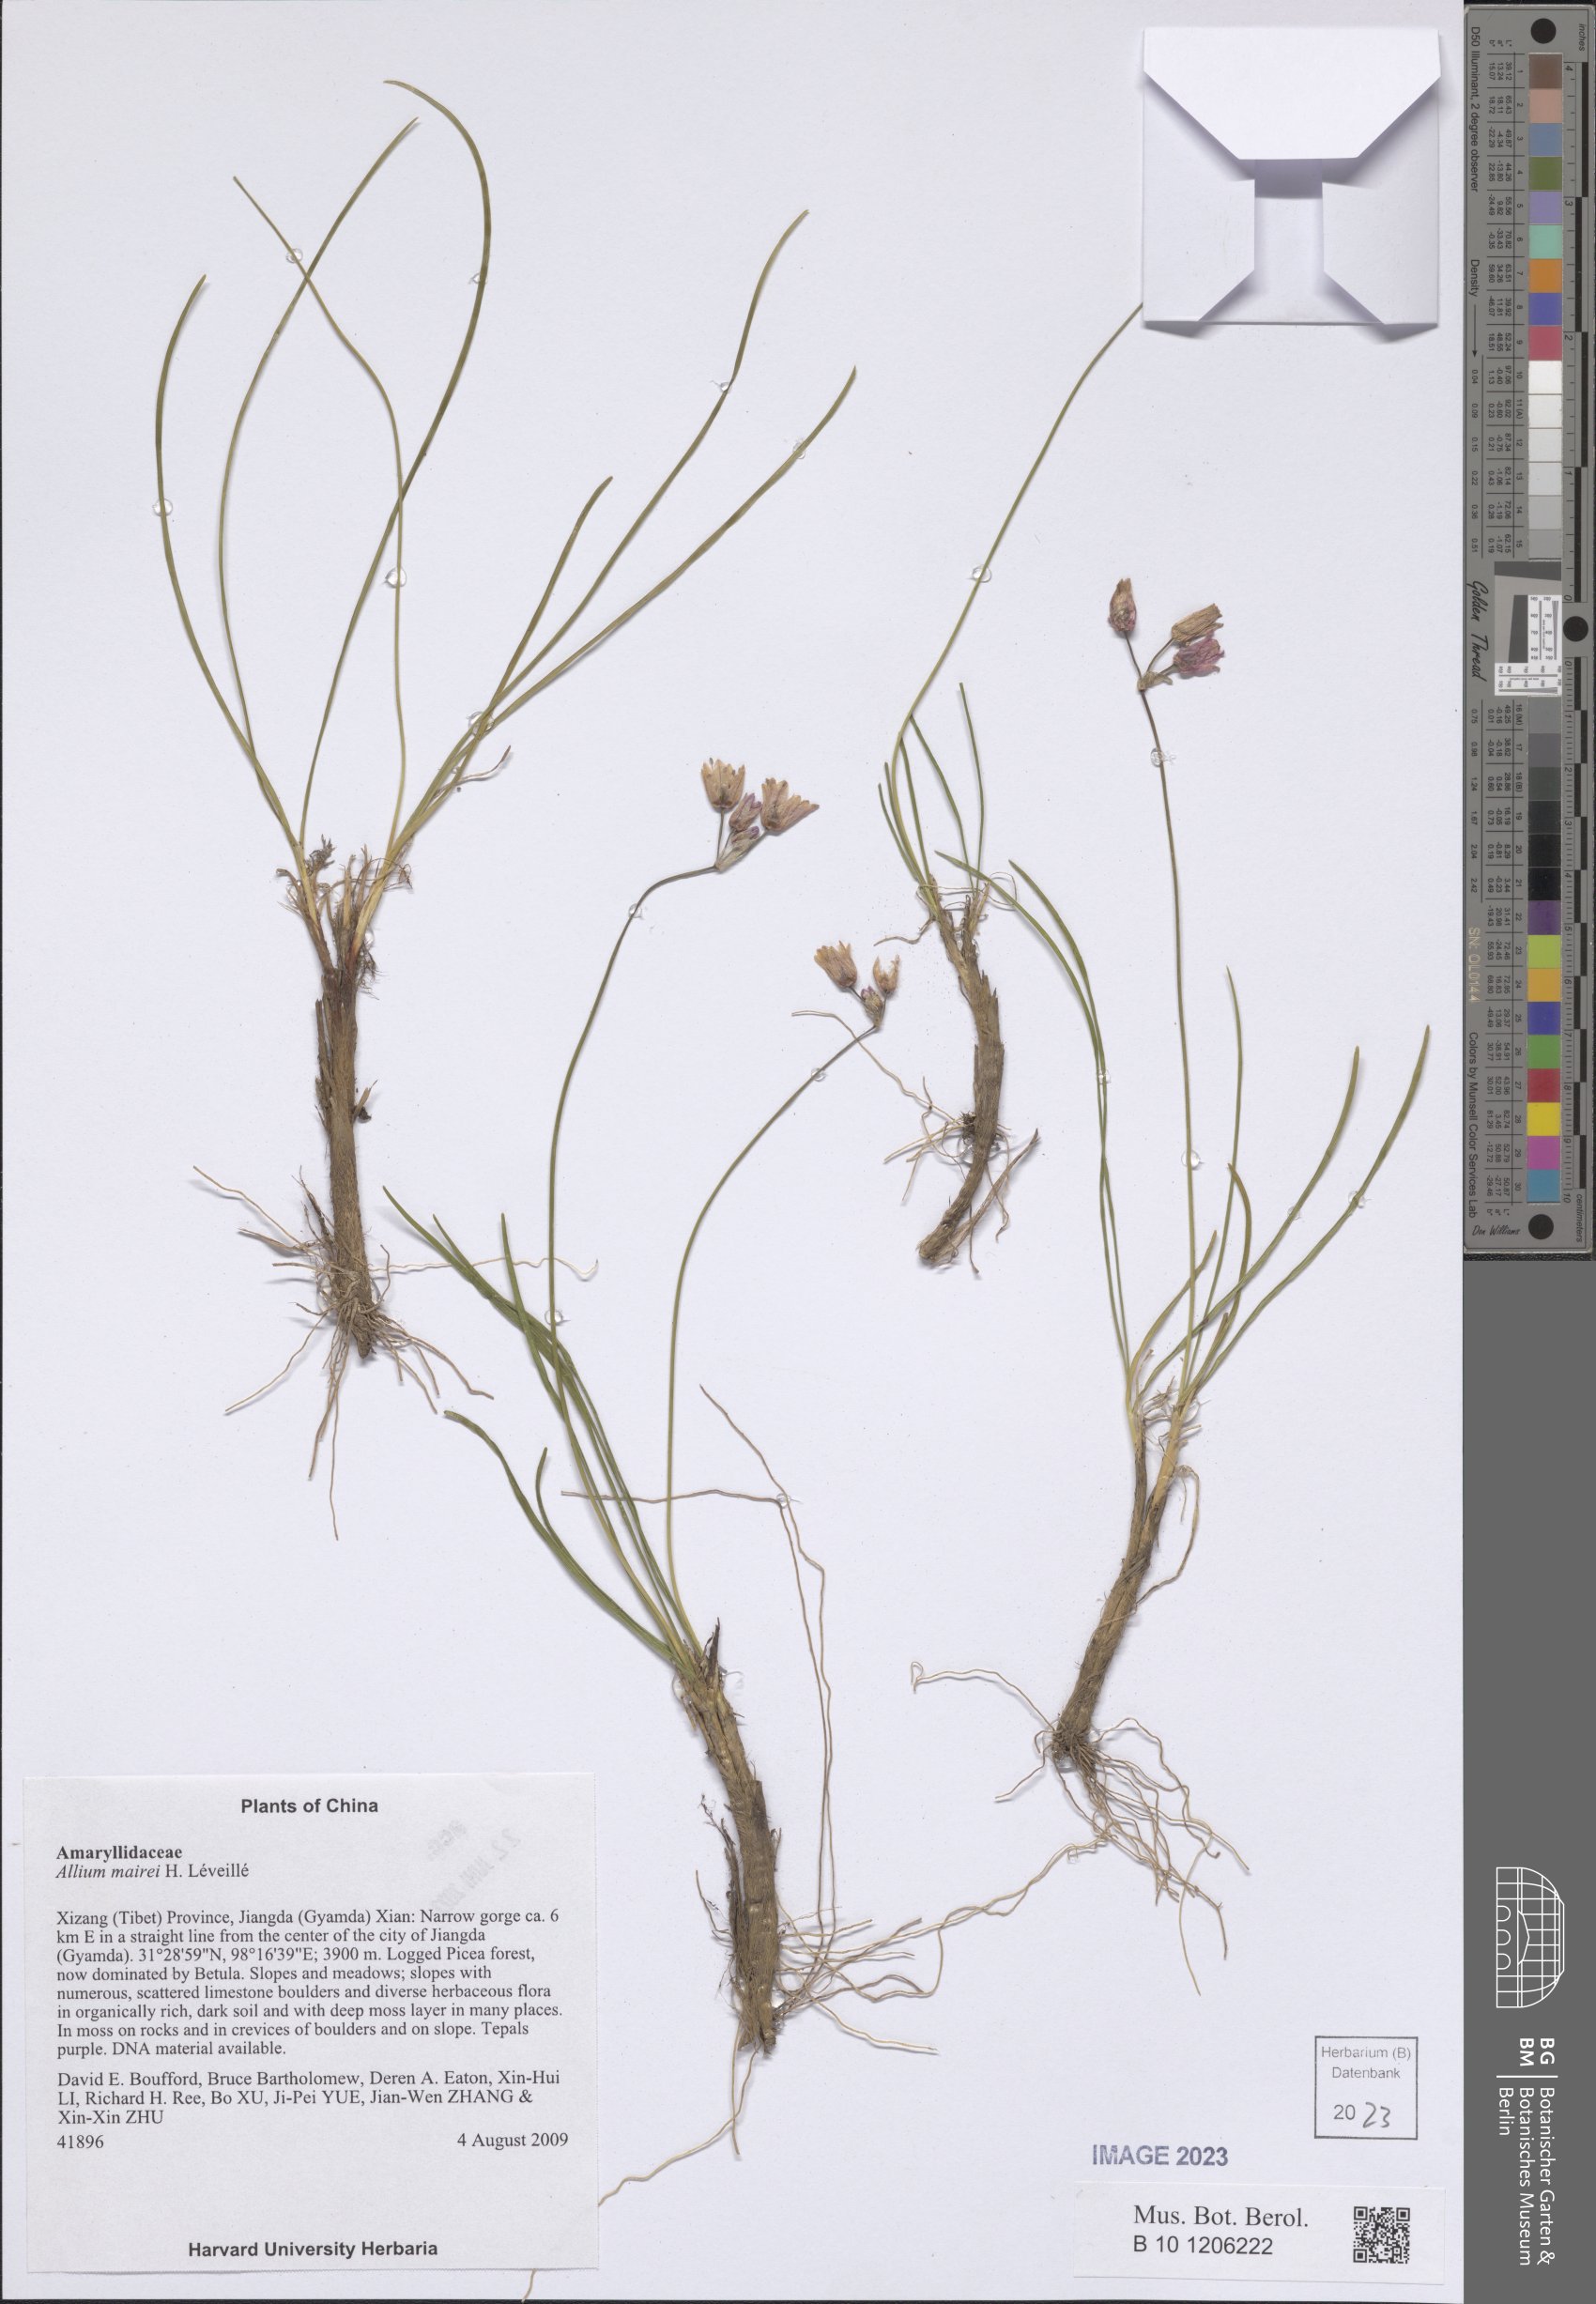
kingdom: Plantae
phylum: Tracheophyta
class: Liliopsida
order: Asparagales
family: Amaryllidaceae
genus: Allium
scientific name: Allium mairei
